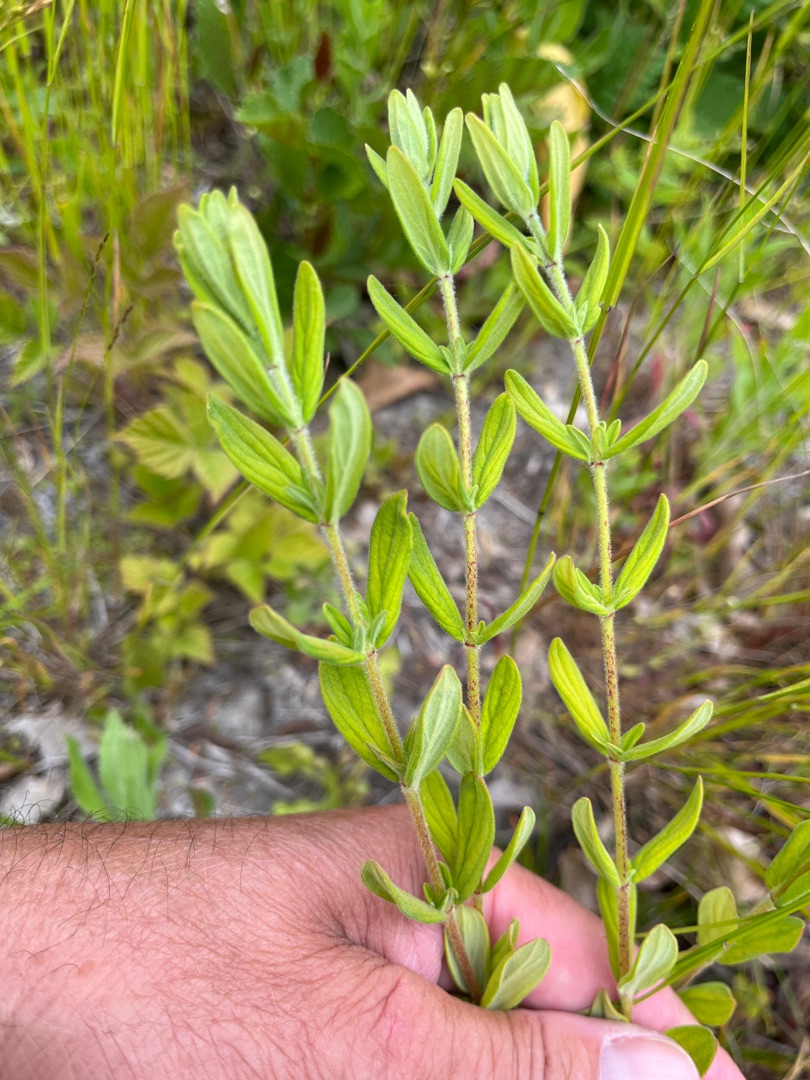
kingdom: Plantae
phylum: Tracheophyta
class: Magnoliopsida
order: Malpighiales
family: Hypericaceae
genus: Hypericum
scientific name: Hypericum hirsutum
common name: Lådden perikon
